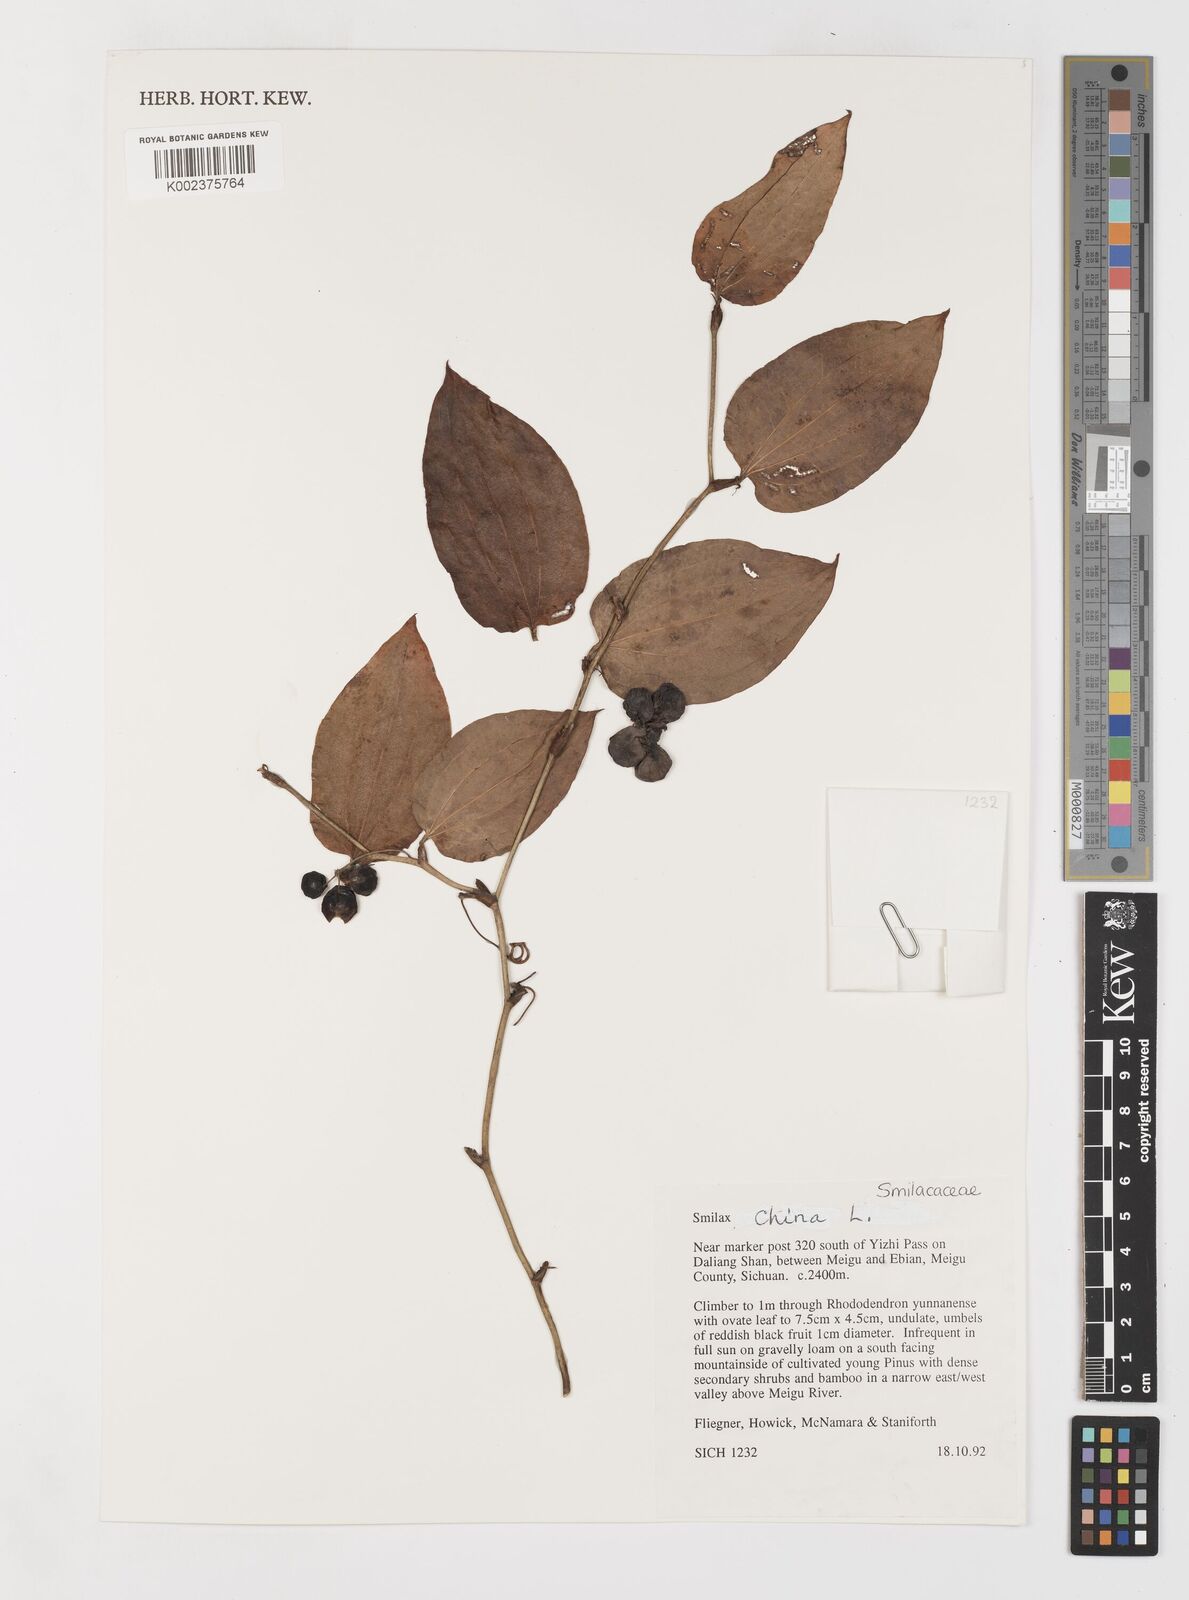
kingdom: Plantae
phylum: Tracheophyta
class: Liliopsida
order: Liliales
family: Smilacaceae
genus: Smilax
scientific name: Smilax china
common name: Chinaroot
